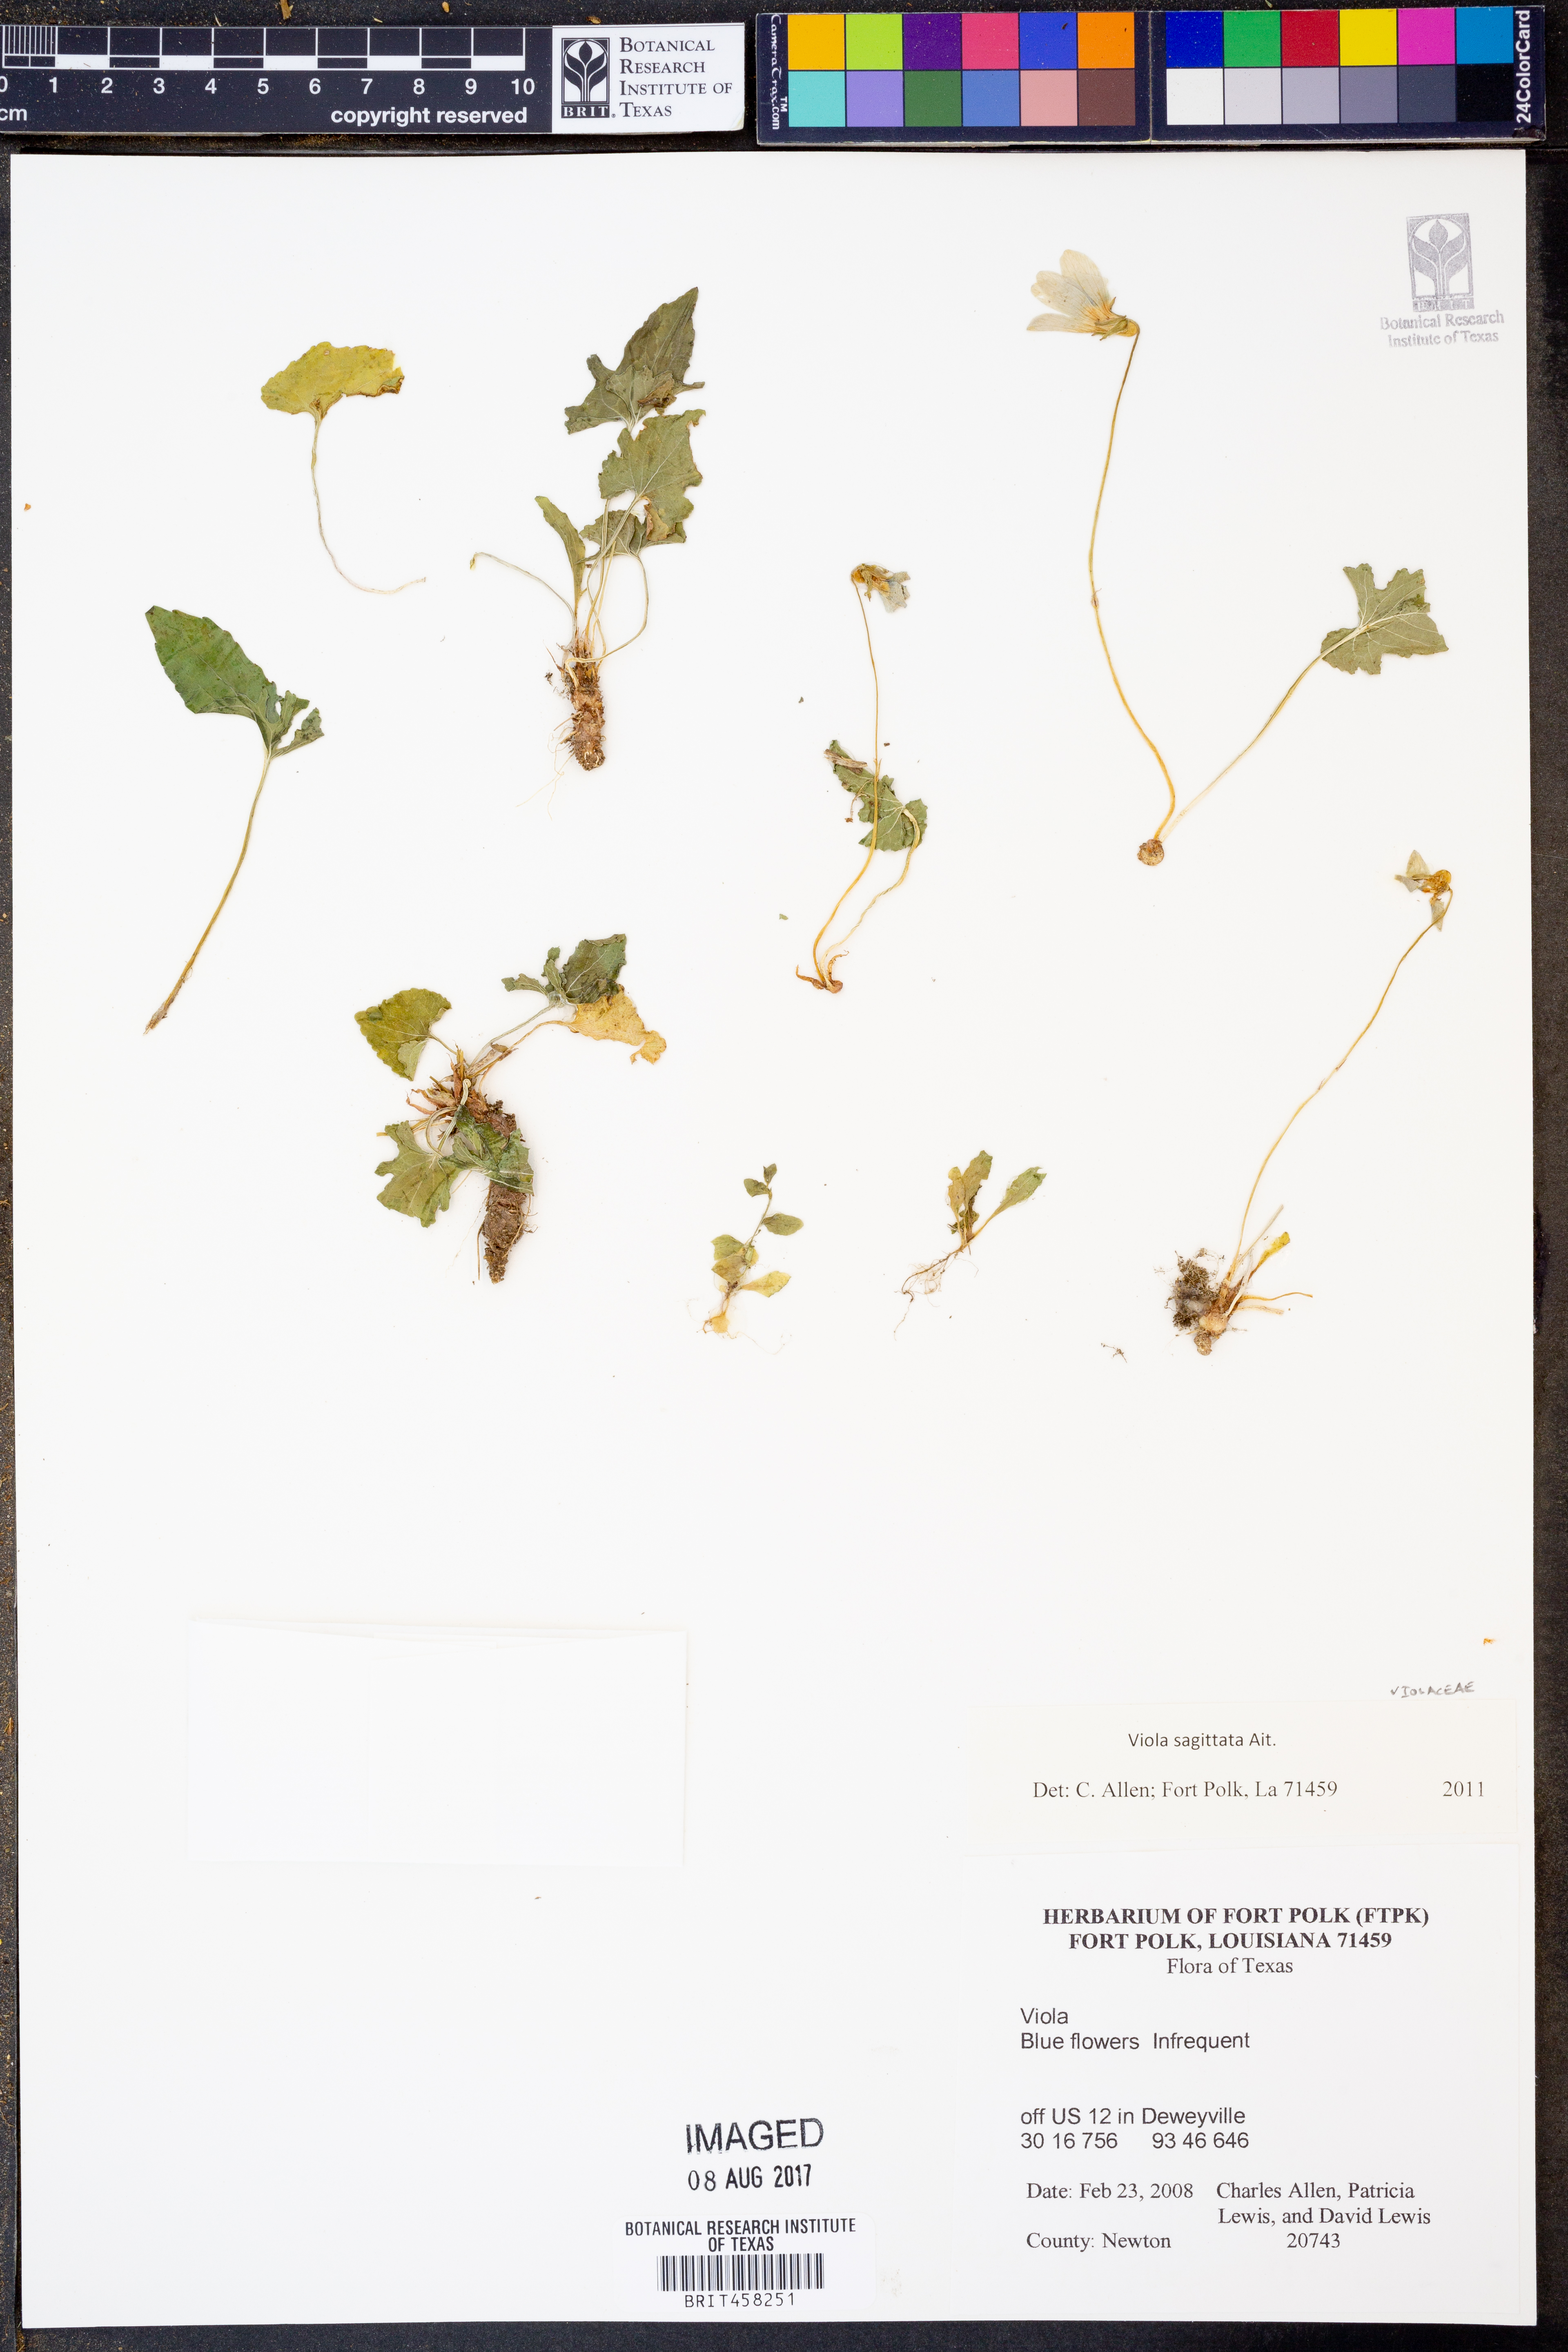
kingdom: Plantae
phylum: Tracheophyta
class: Magnoliopsida
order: Malpighiales
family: Violaceae
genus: Viola
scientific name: Viola sagittata
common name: Arrowhead violet
